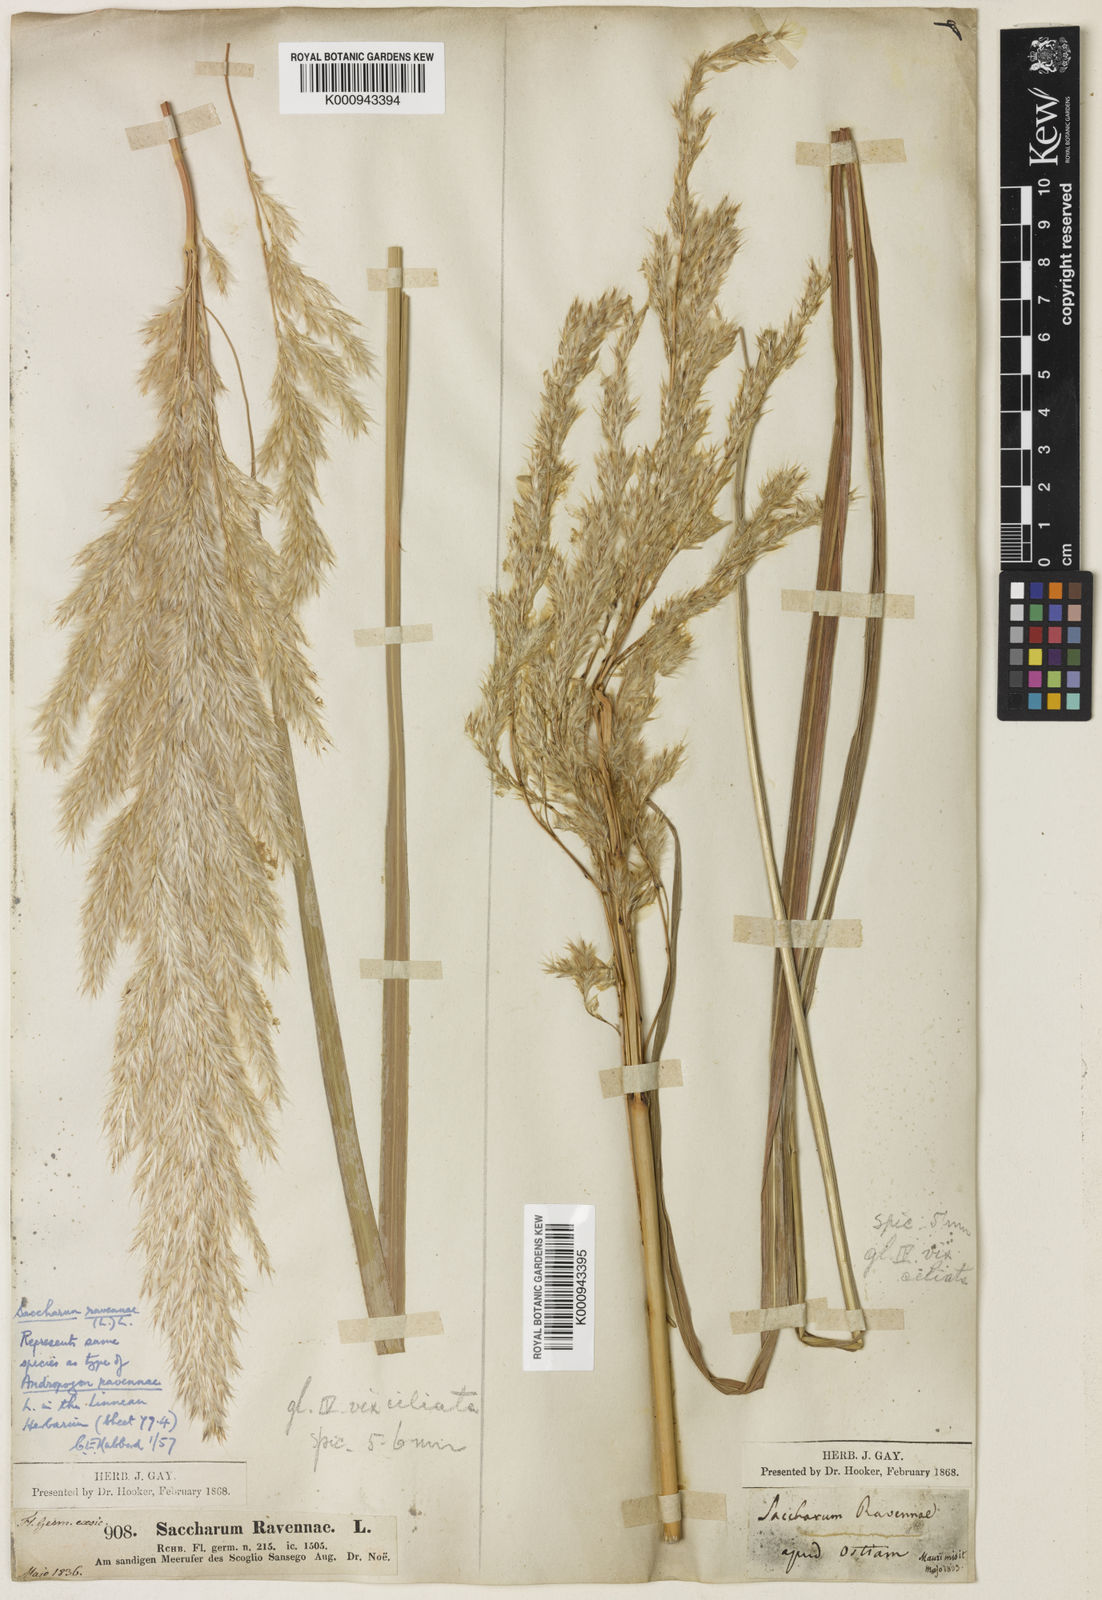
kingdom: Plantae
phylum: Tracheophyta
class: Liliopsida
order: Poales
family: Poaceae
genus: Tripidium
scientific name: Tripidium ravennae
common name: Ravenna grass
